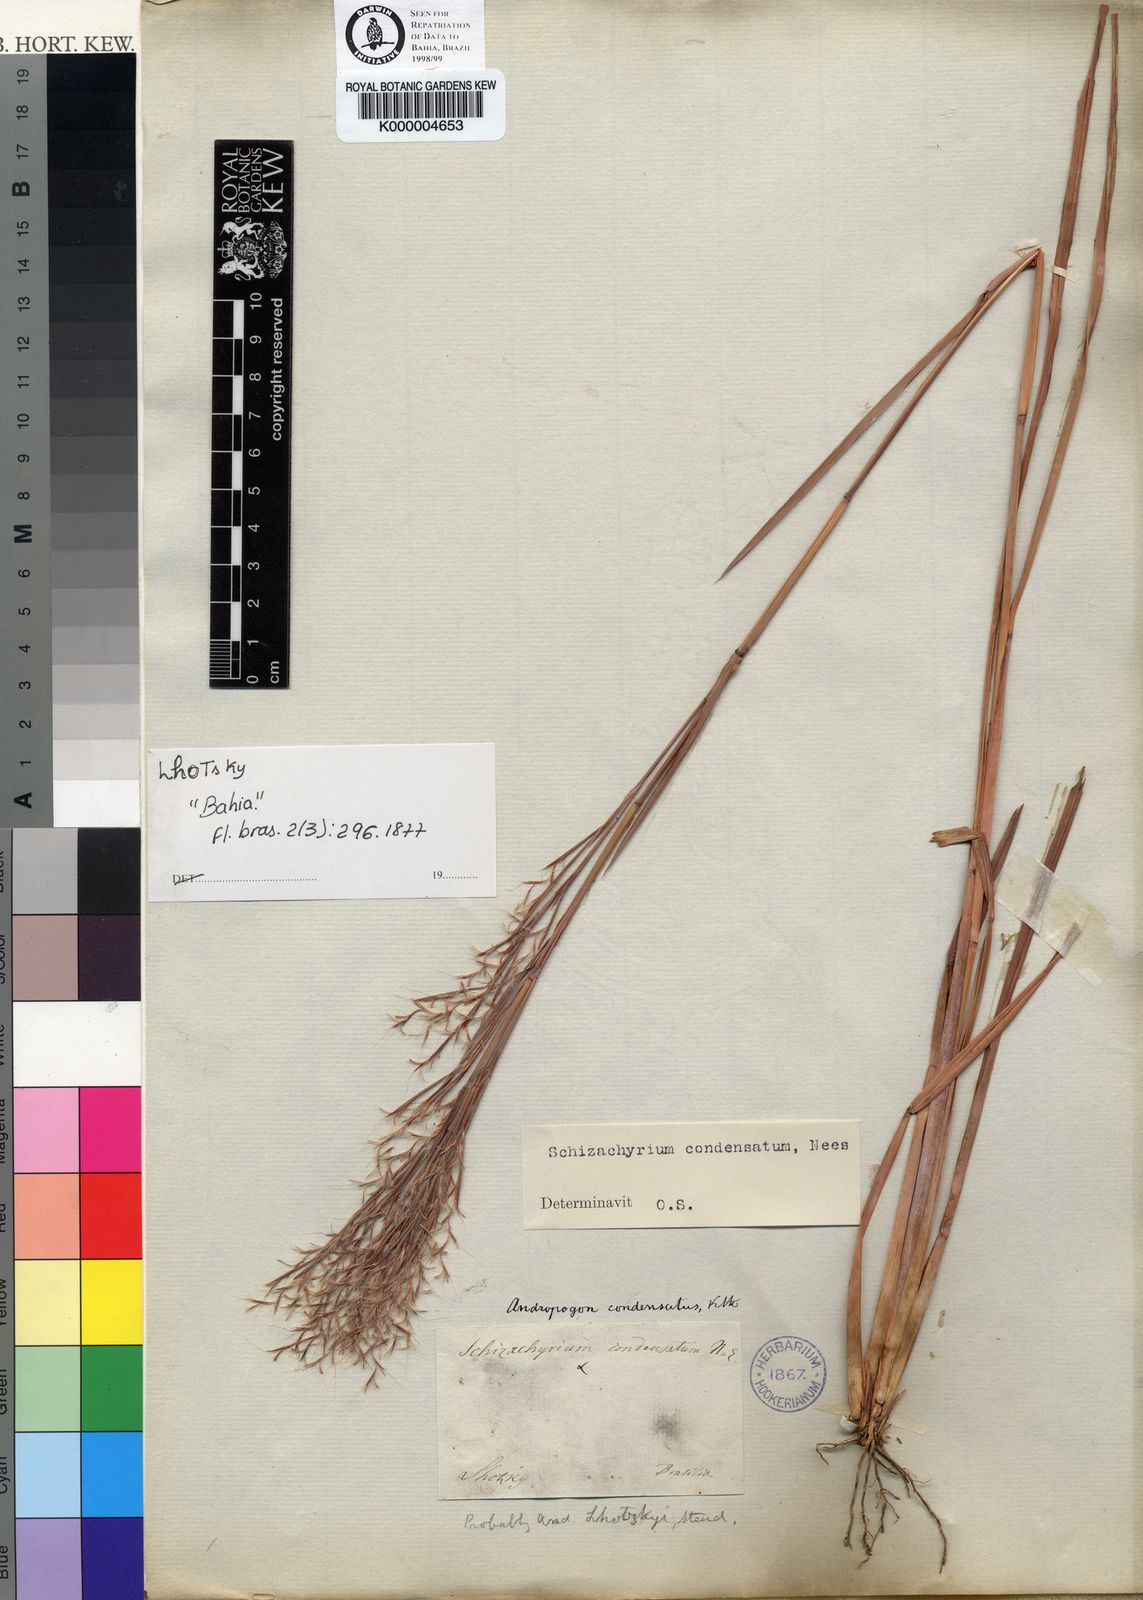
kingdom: Plantae
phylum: Tracheophyta
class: Liliopsida
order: Poales
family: Poaceae
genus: Schizachyrium
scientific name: Schizachyrium condensatum
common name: Bush beardgrass
